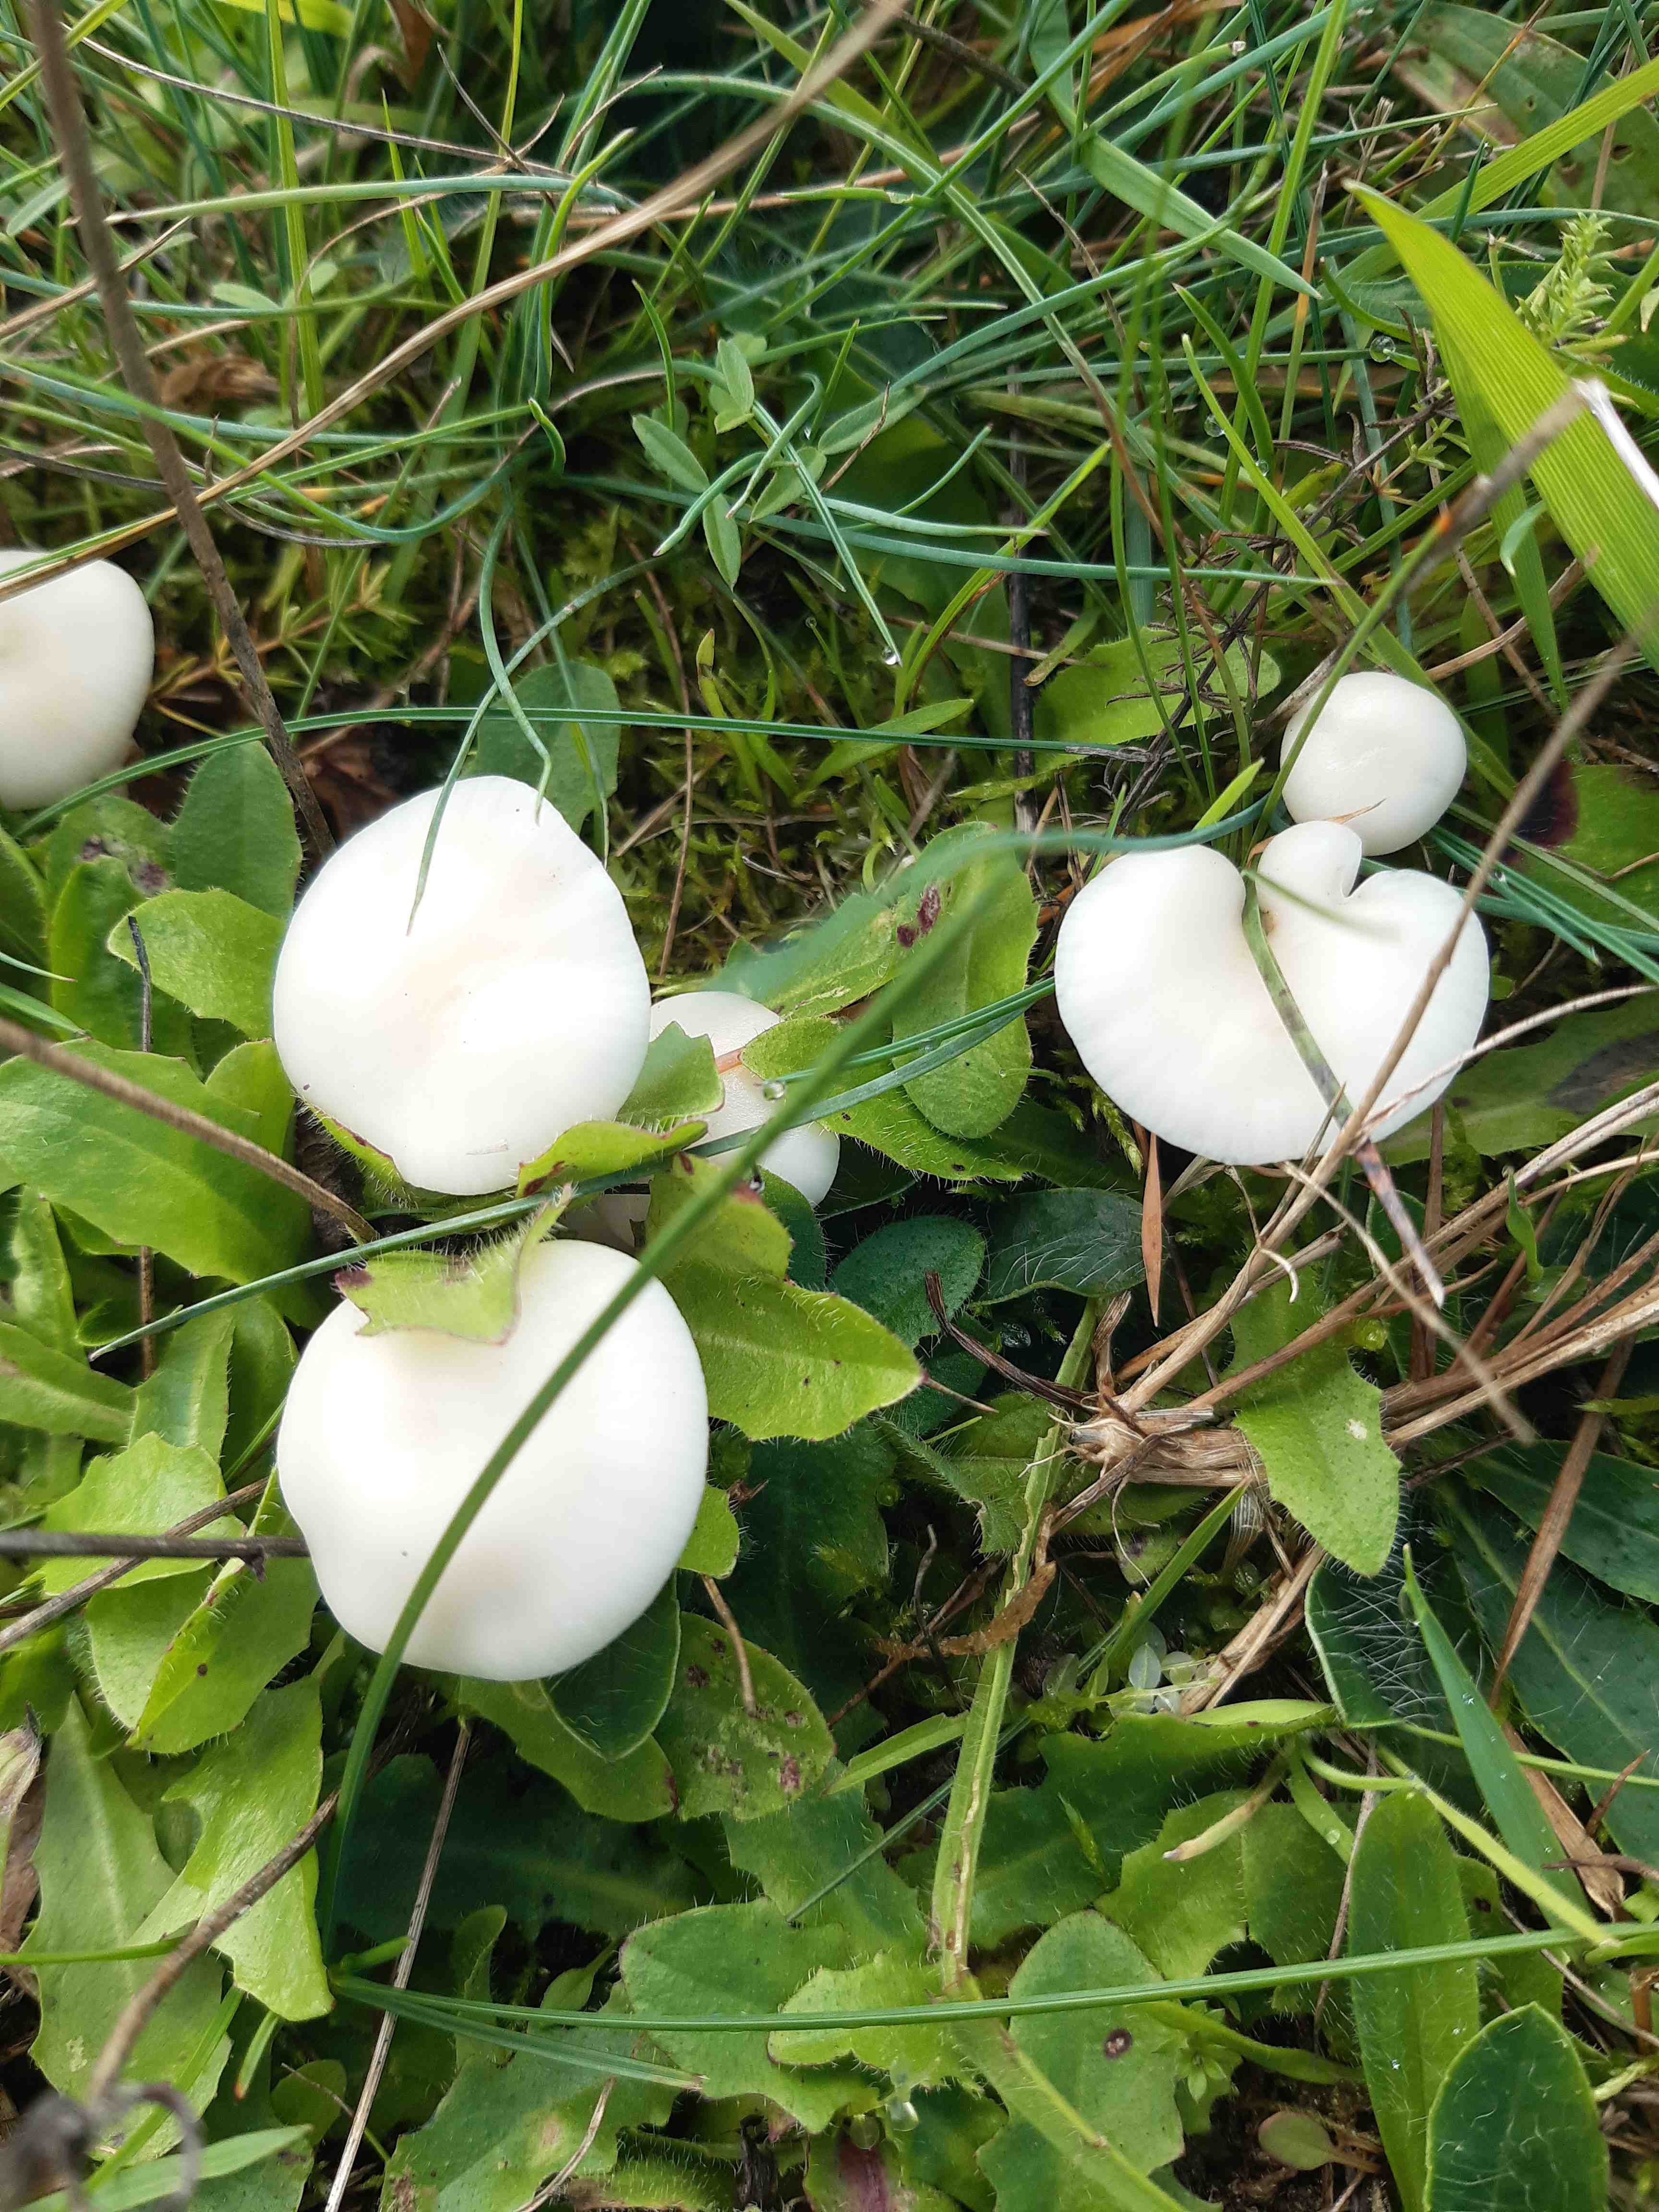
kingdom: Fungi
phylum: Basidiomycota
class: Agaricomycetes
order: Agaricales
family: Hygrophoraceae
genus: Cuphophyllus
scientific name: Cuphophyllus virgineus
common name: snehvid vokshat
